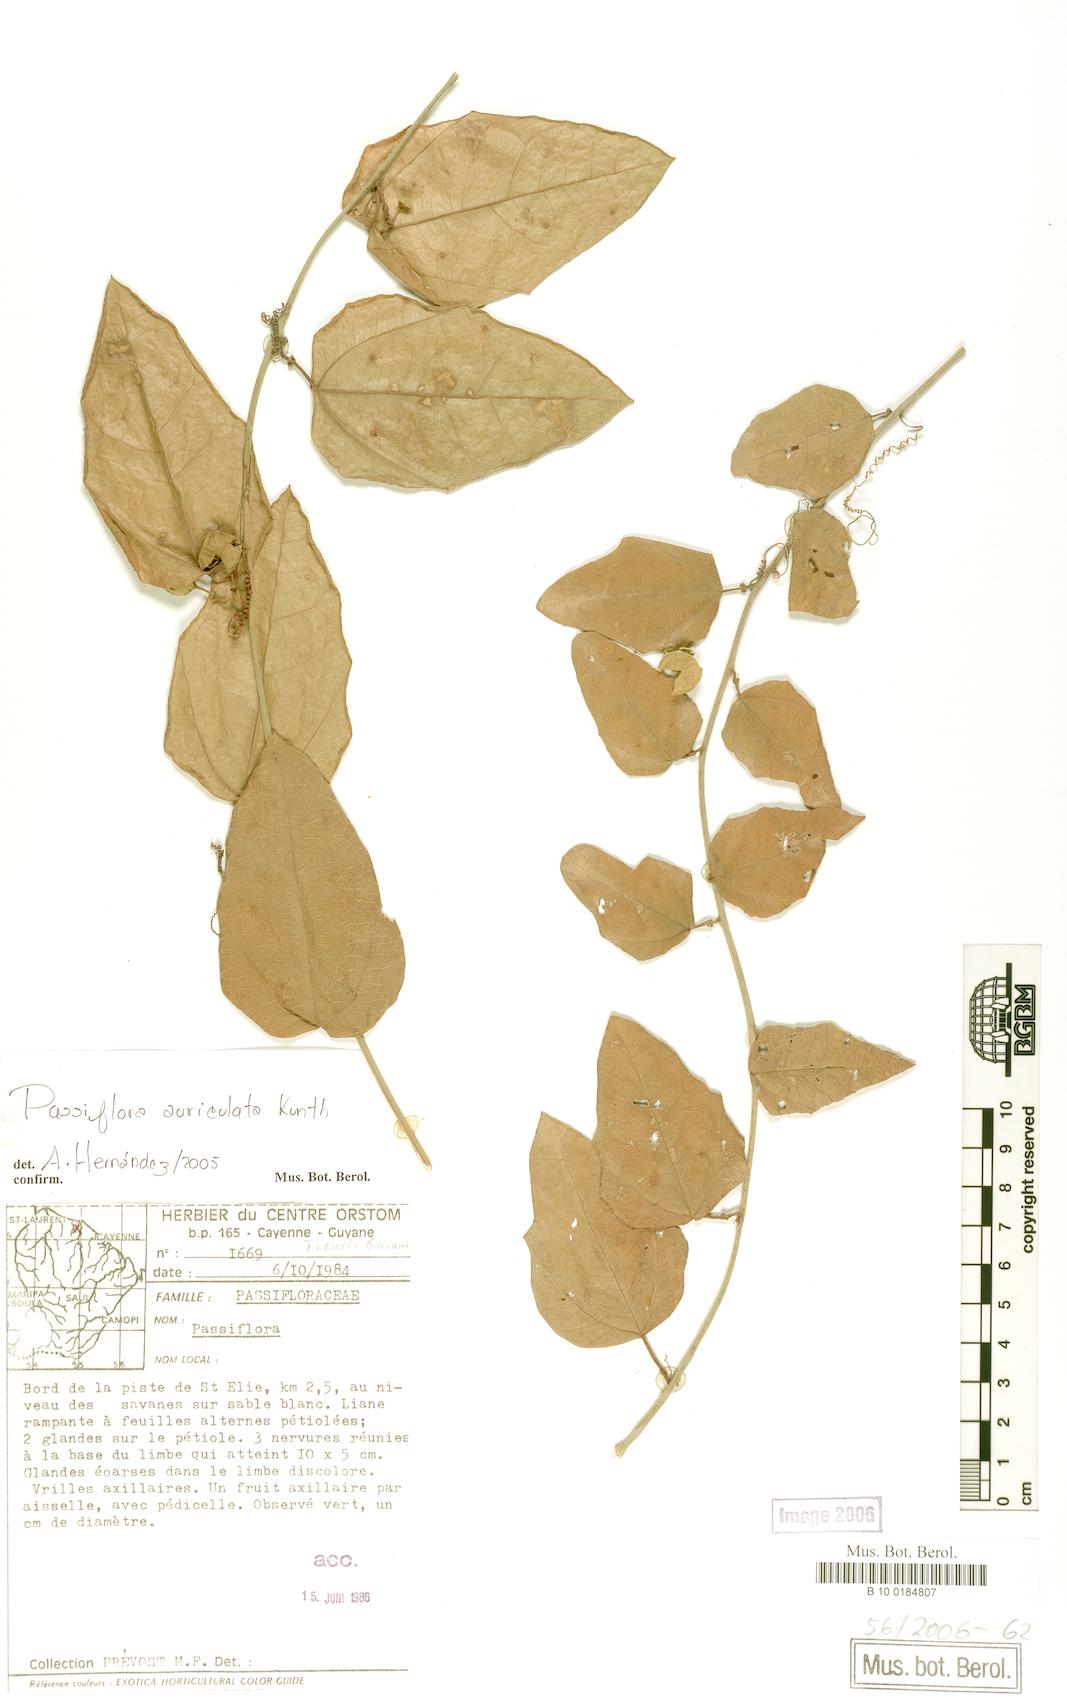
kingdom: Plantae
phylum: Tracheophyta
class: Magnoliopsida
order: Malpighiales
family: Passifloraceae
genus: Passiflora
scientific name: Passiflora auriculata
